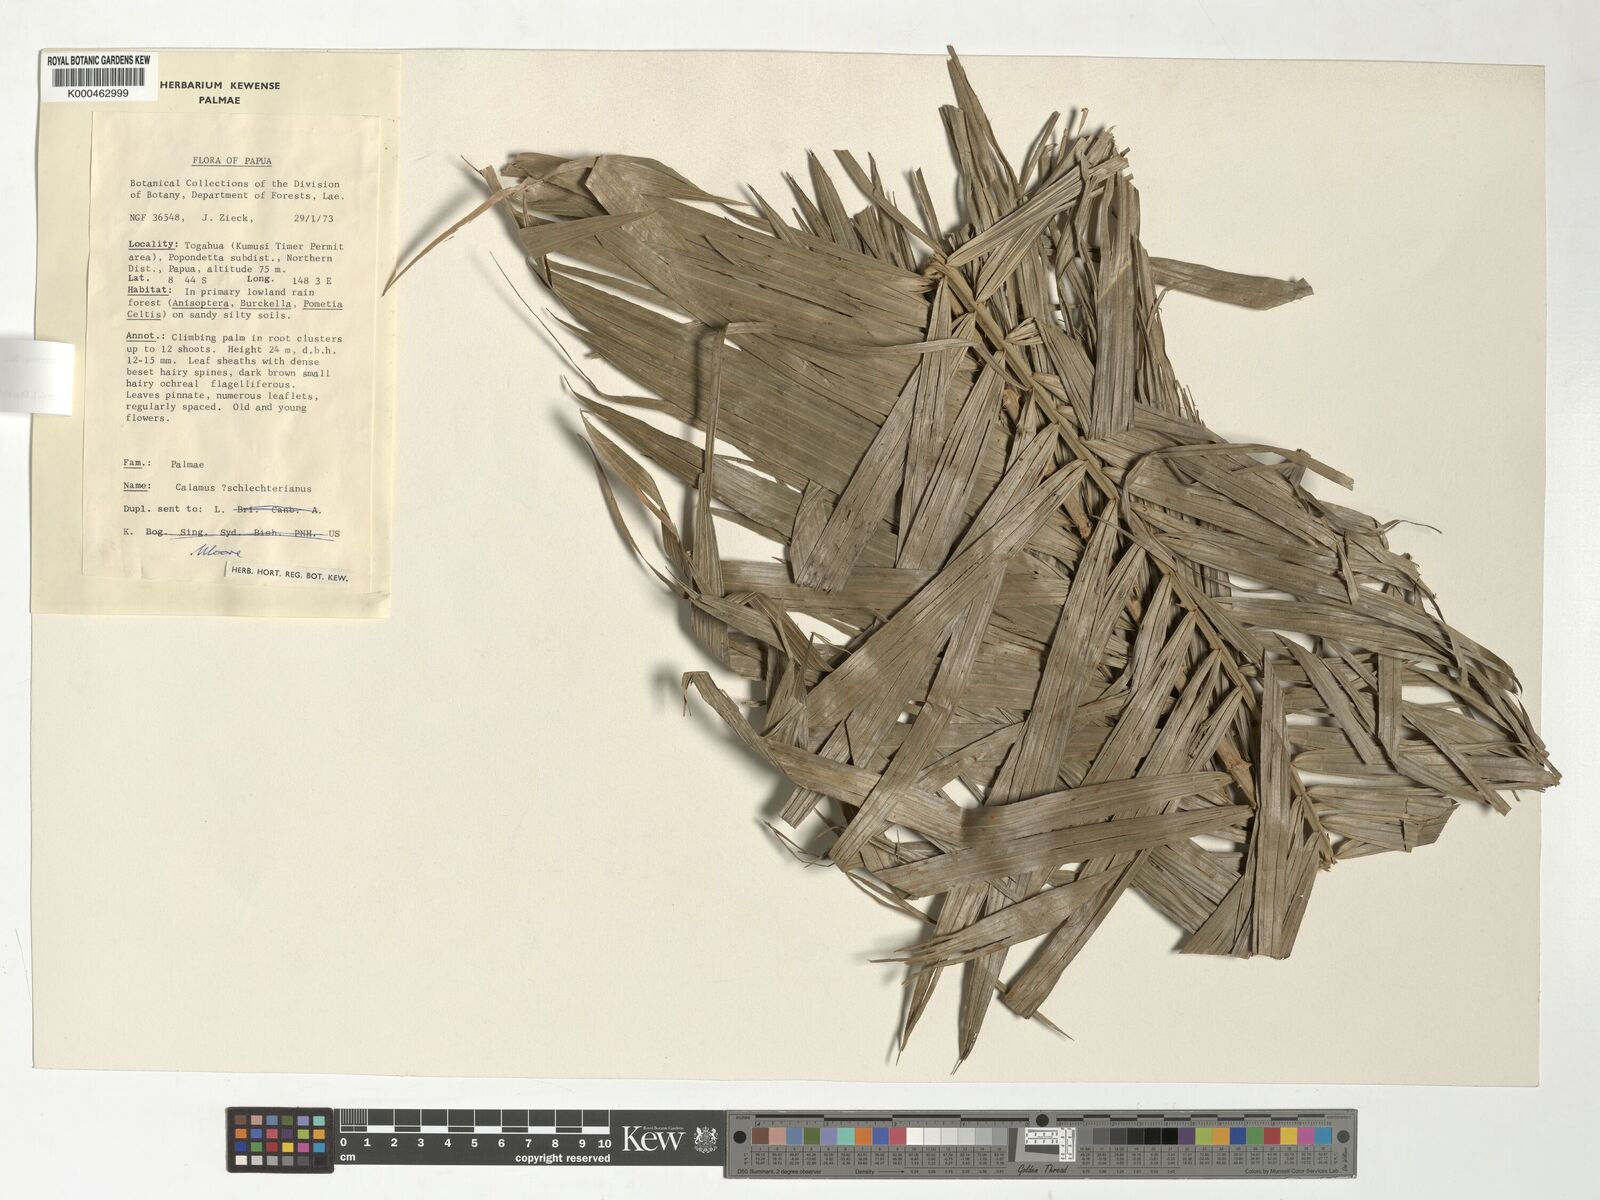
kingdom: Plantae
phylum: Tracheophyta
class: Liliopsida
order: Arecales
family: Arecaceae
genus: Calamus
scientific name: Calamus schlechterianus
